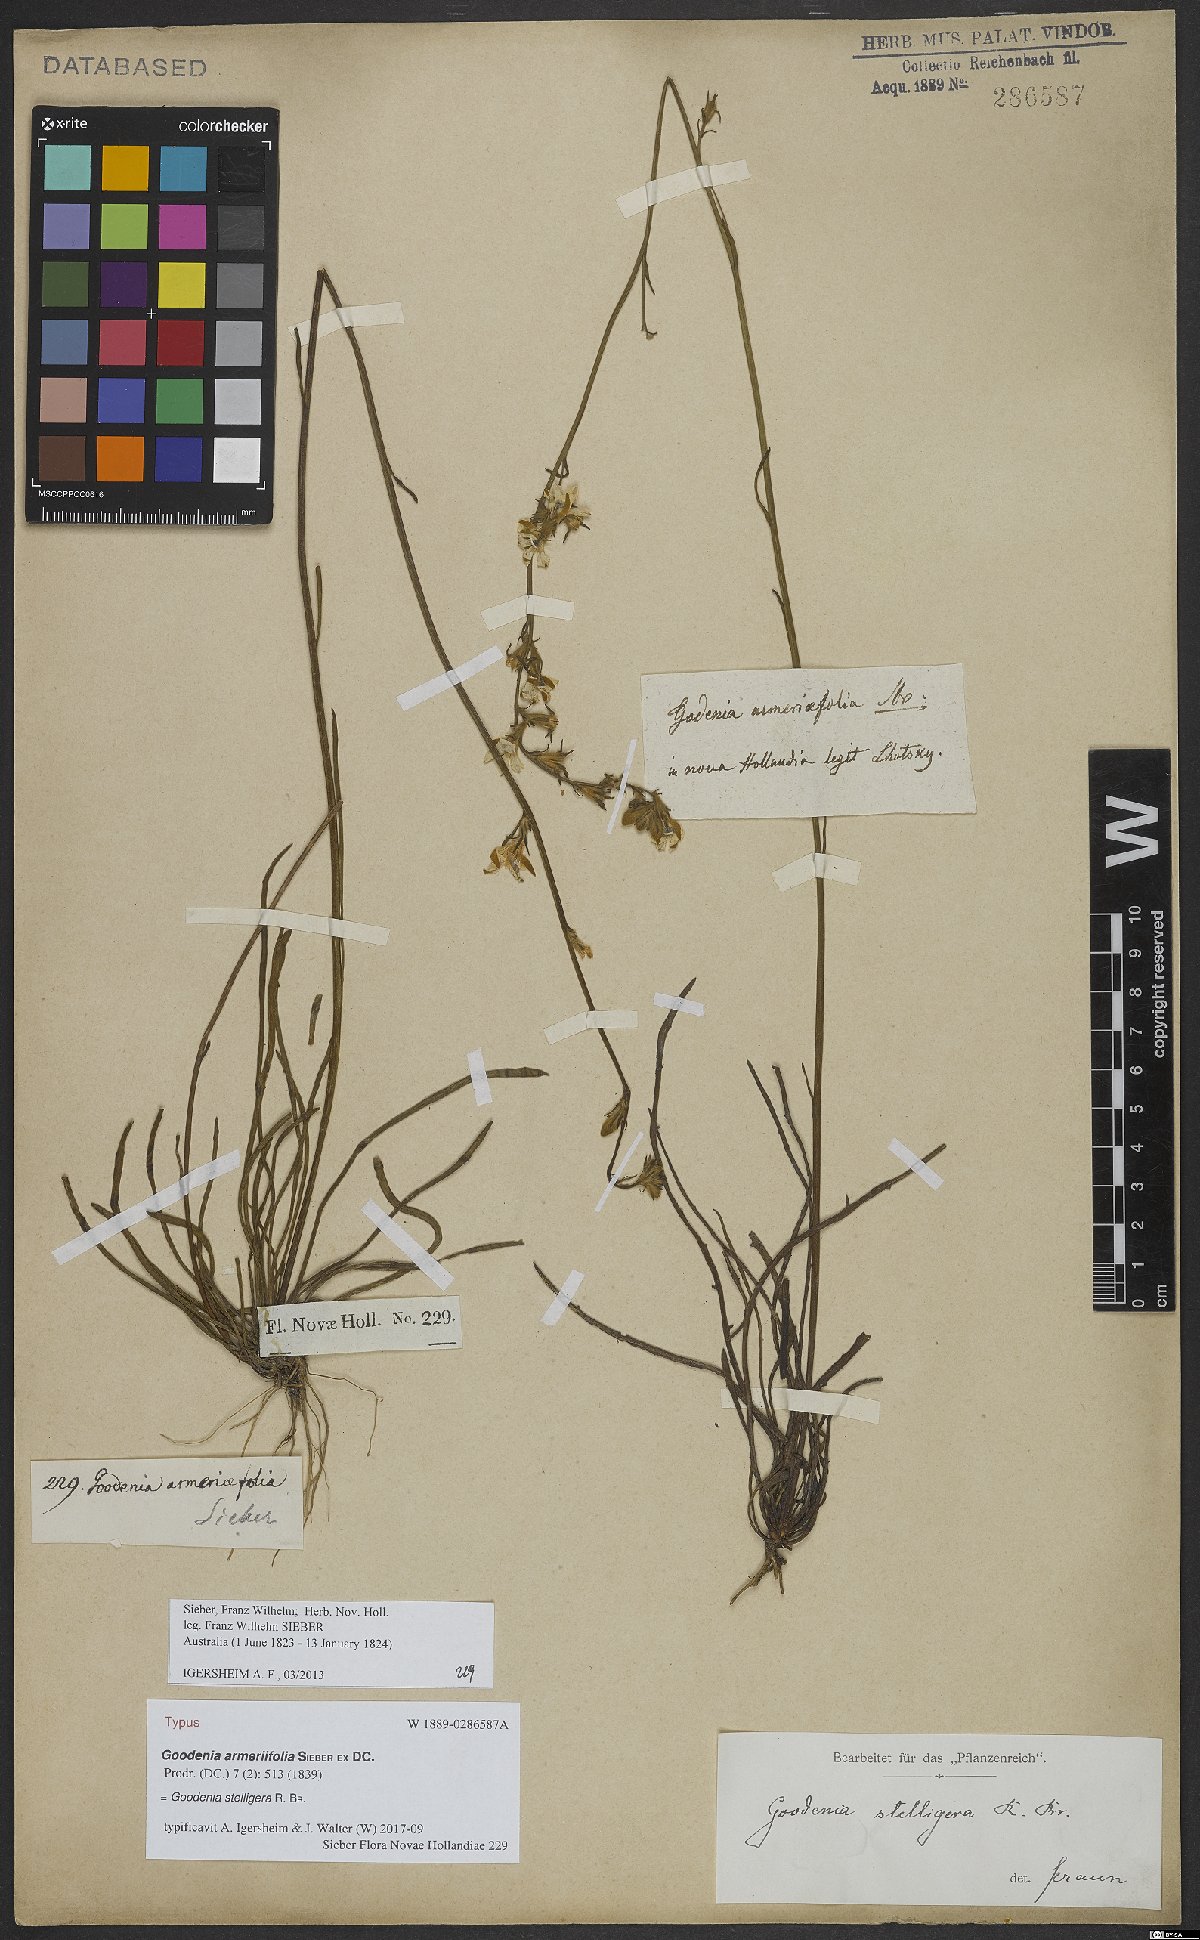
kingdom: Plantae
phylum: Tracheophyta
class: Magnoliopsida
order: Asterales
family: Goodeniaceae
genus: Goodenia
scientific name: Goodenia stelligera
